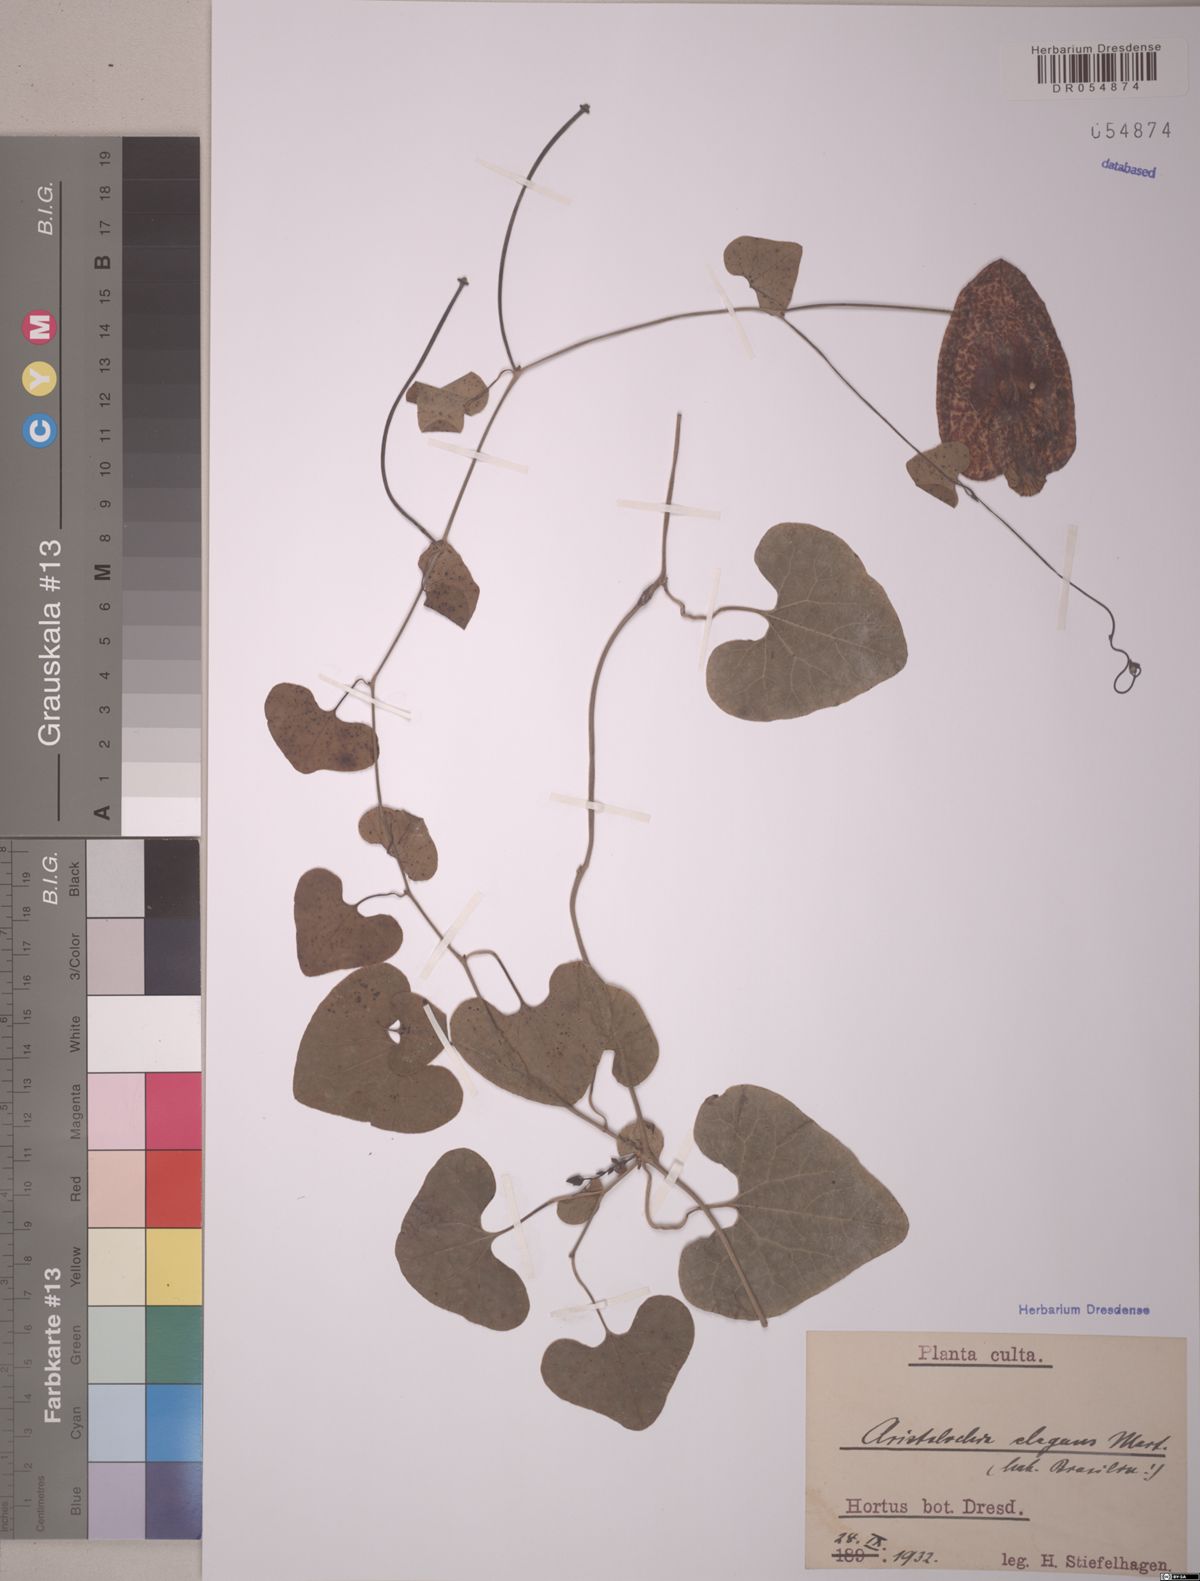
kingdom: Plantae
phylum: Tracheophyta
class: Magnoliopsida
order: Piperales
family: Aristolochiaceae
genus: Aristolochia
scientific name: Aristolochia littoralis
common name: Duck
